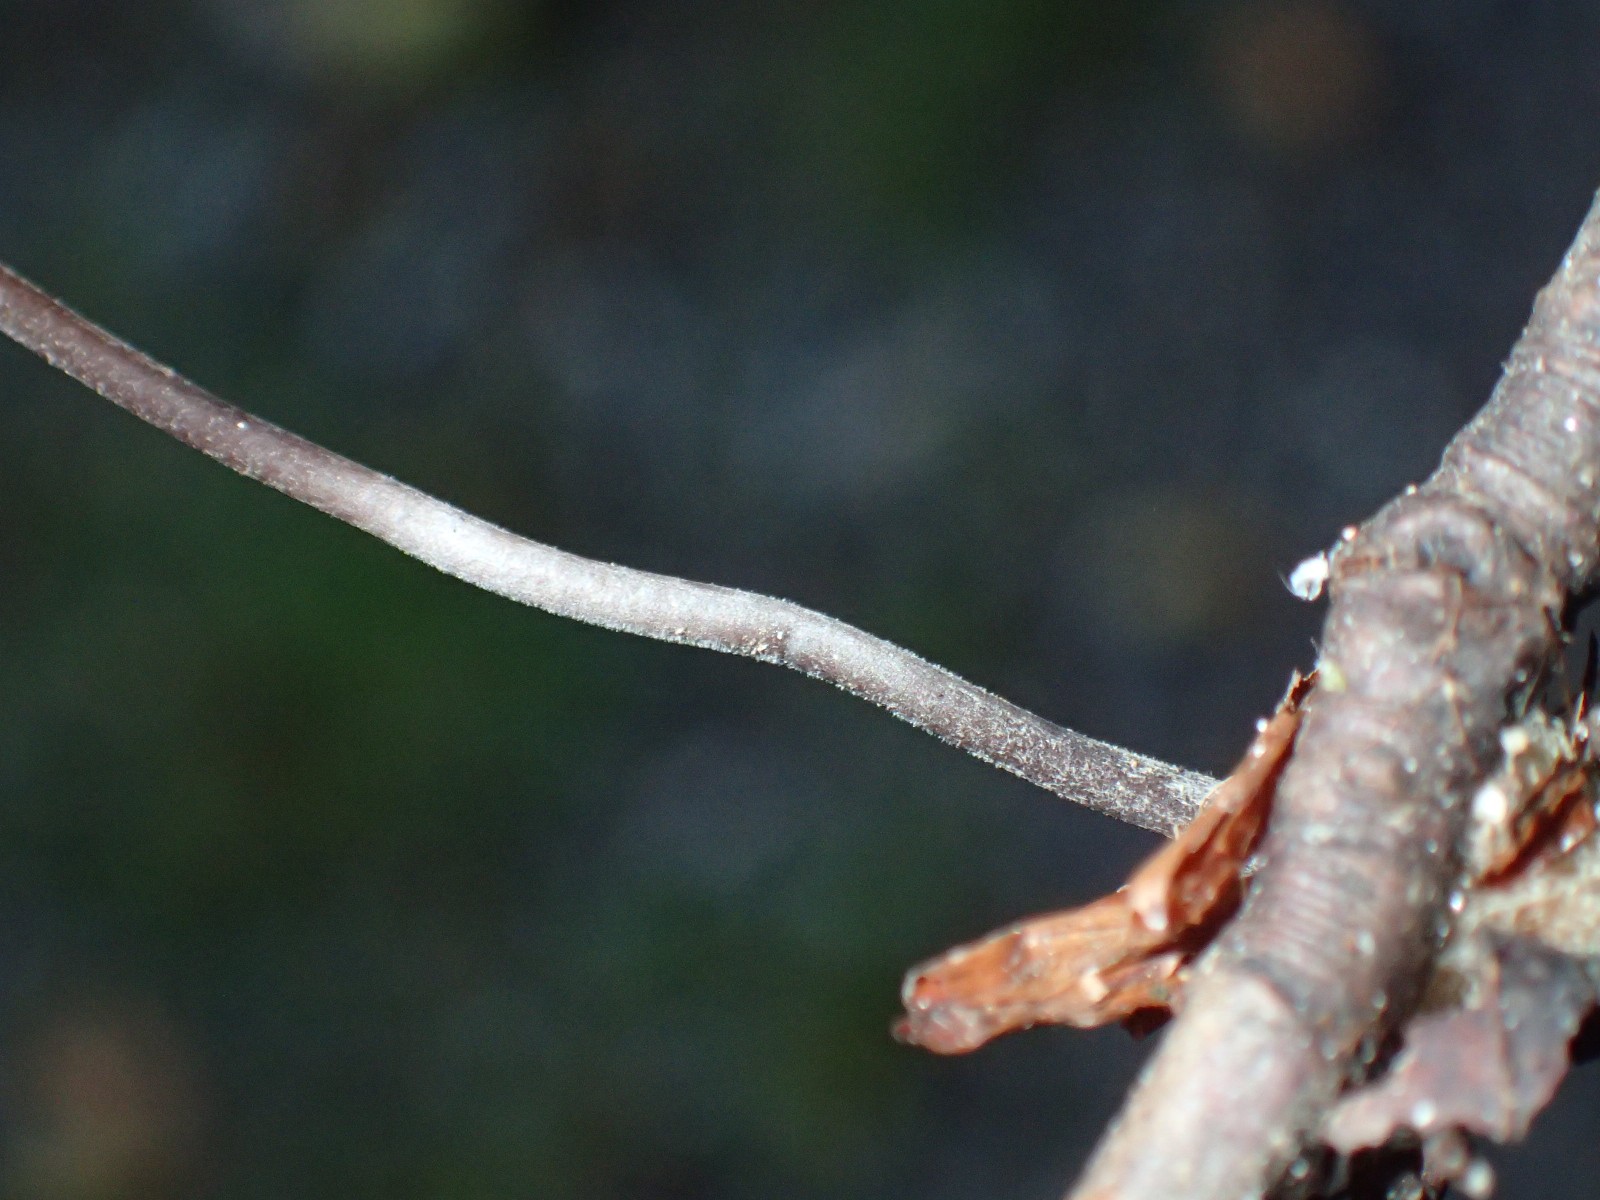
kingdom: Fungi
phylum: Basidiomycota
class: Agaricomycetes
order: Agaricales
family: Omphalotaceae
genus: Mycetinis
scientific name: Mycetinis alliaceus
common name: stor løghat
